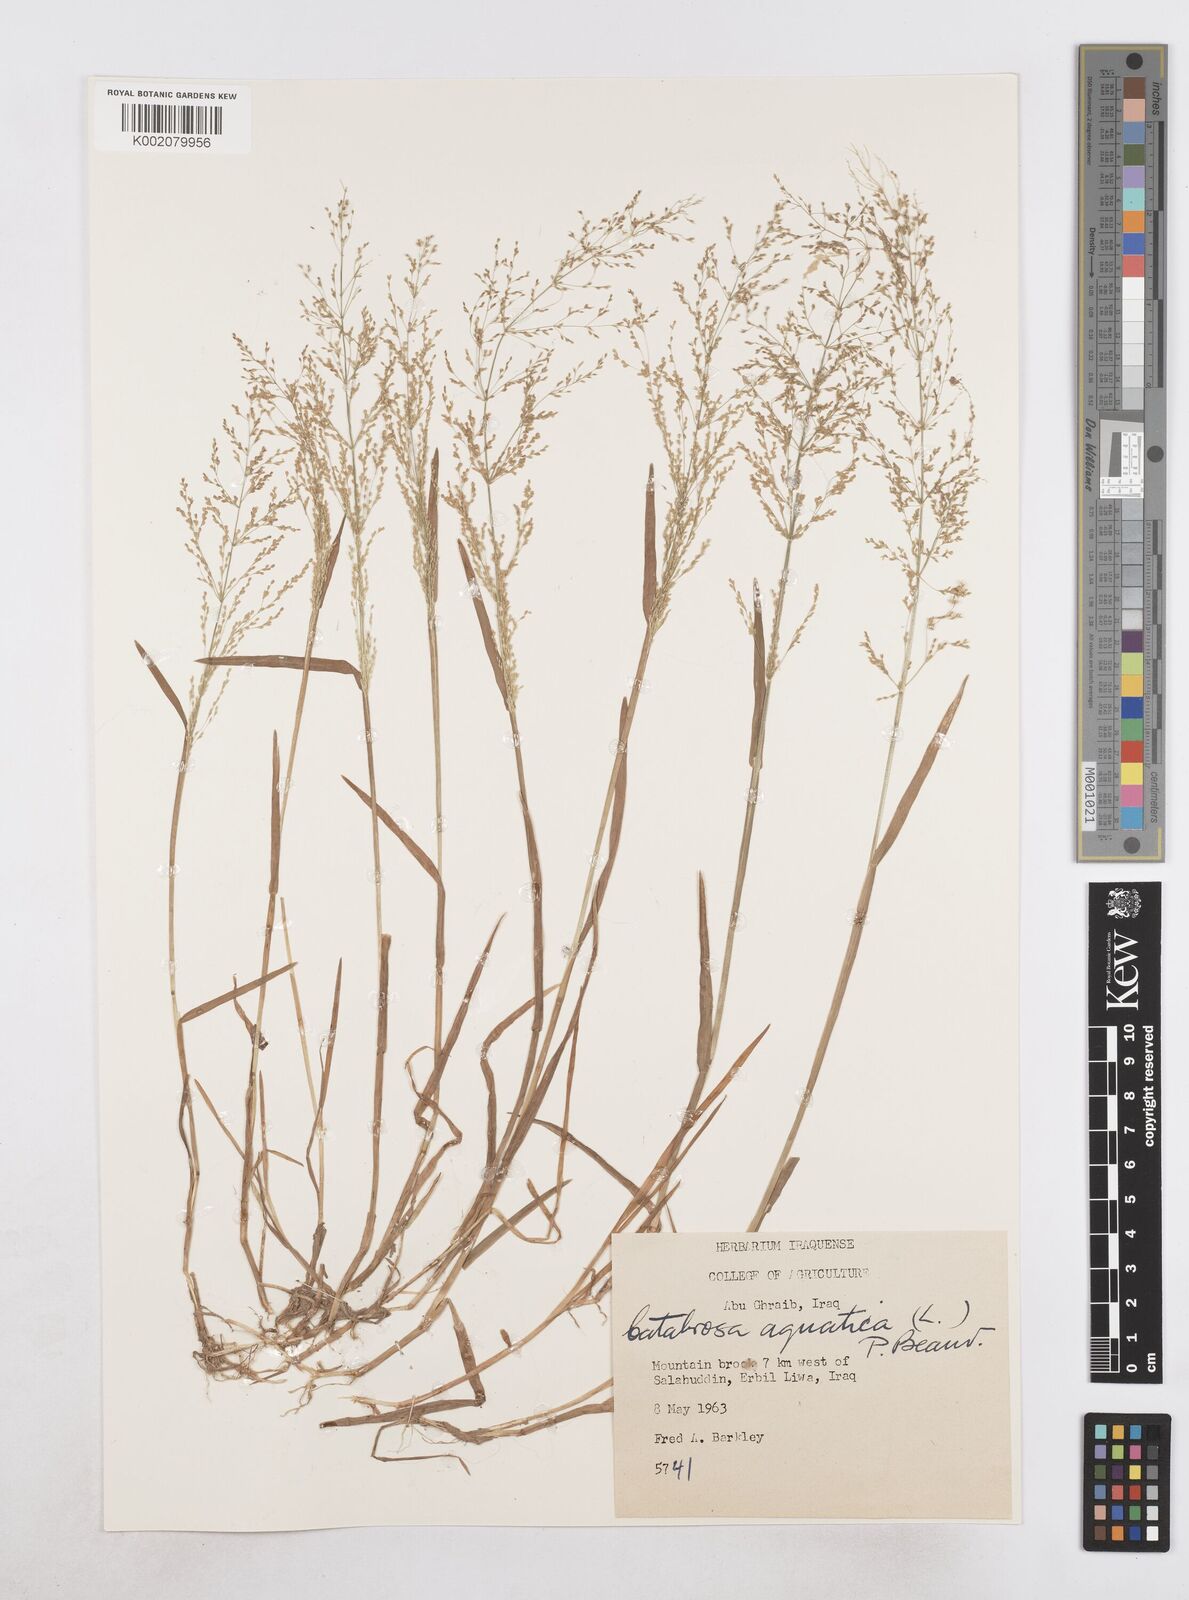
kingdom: Plantae
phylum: Tracheophyta
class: Liliopsida
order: Poales
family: Poaceae
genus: Catabrosa
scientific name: Catabrosa aquatica
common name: Whorl-grass
